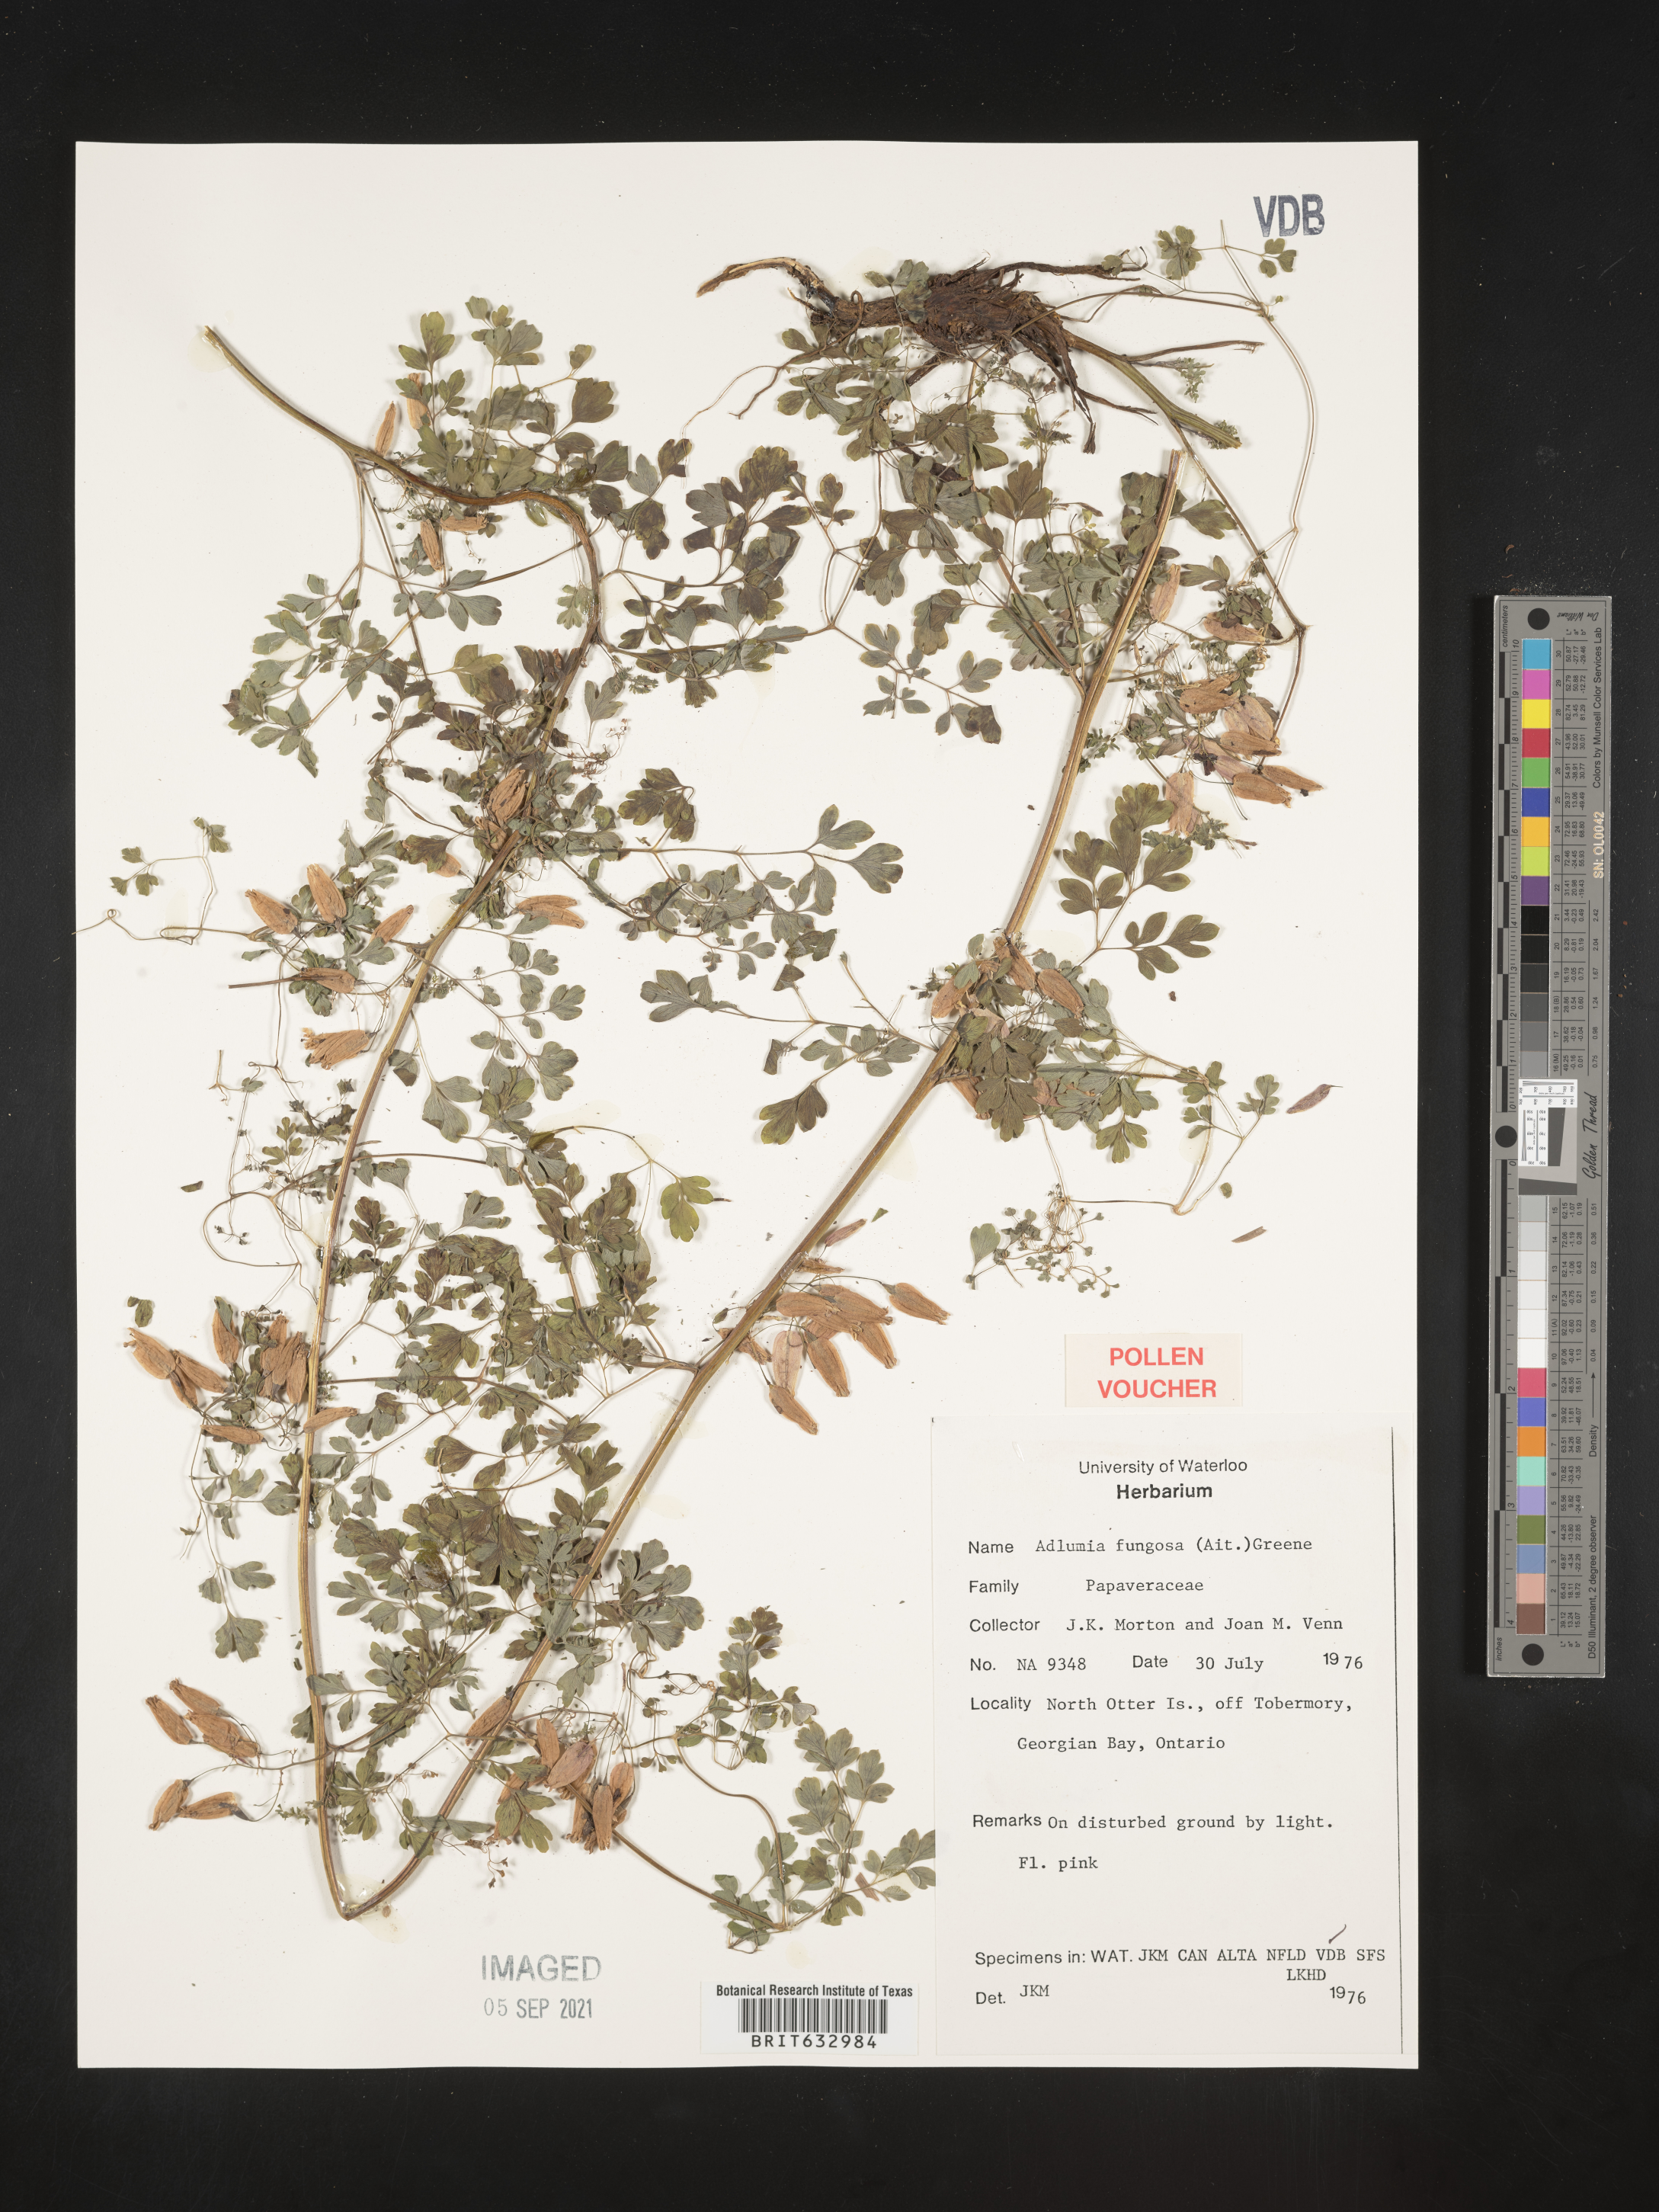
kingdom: Plantae
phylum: Tracheophyta
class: Magnoliopsida
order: Ranunculales
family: Papaveraceae
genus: Adlumia
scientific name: Adlumia
